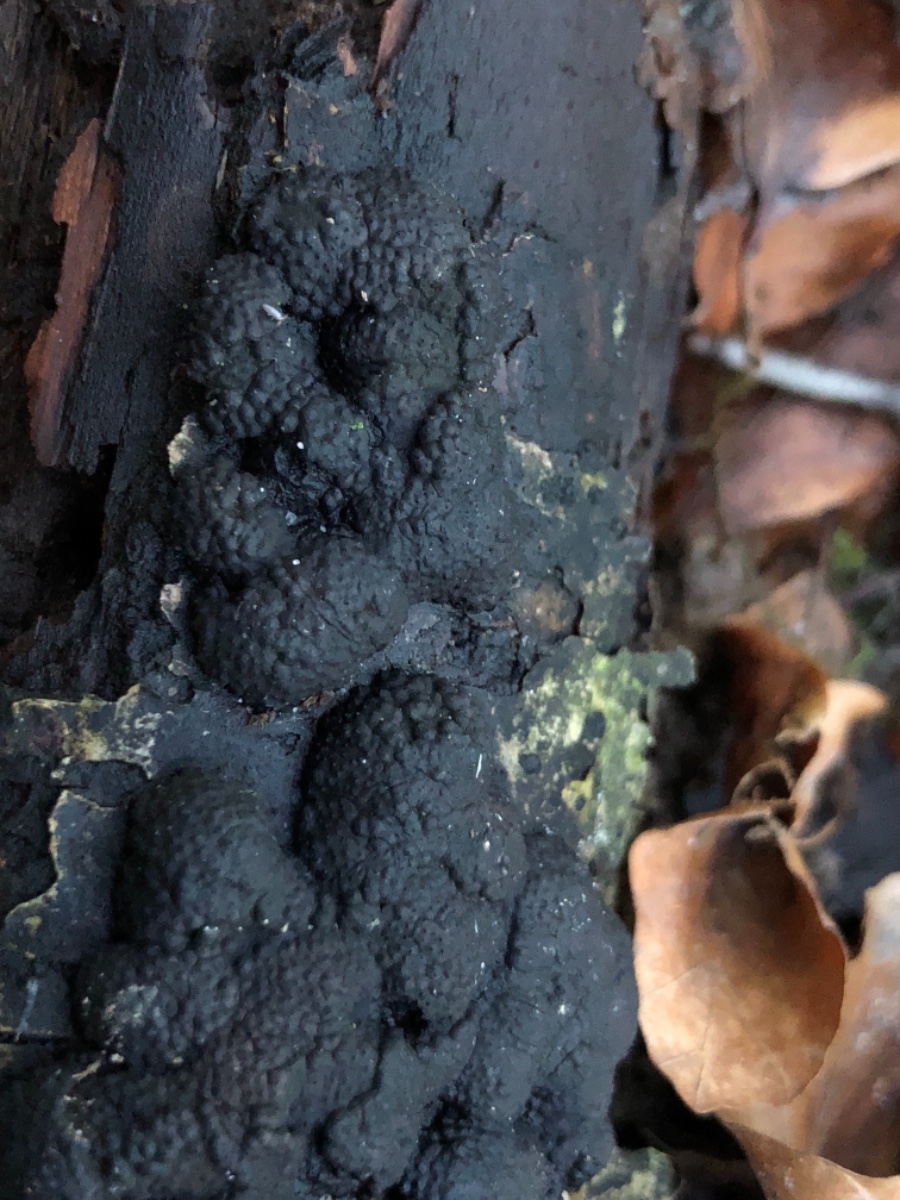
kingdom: Fungi
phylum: Ascomycota
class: Sordariomycetes
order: Xylariales
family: Hypoxylaceae
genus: Jackrogersella
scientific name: Jackrogersella cohaerens
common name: sammenflydende kulbær
